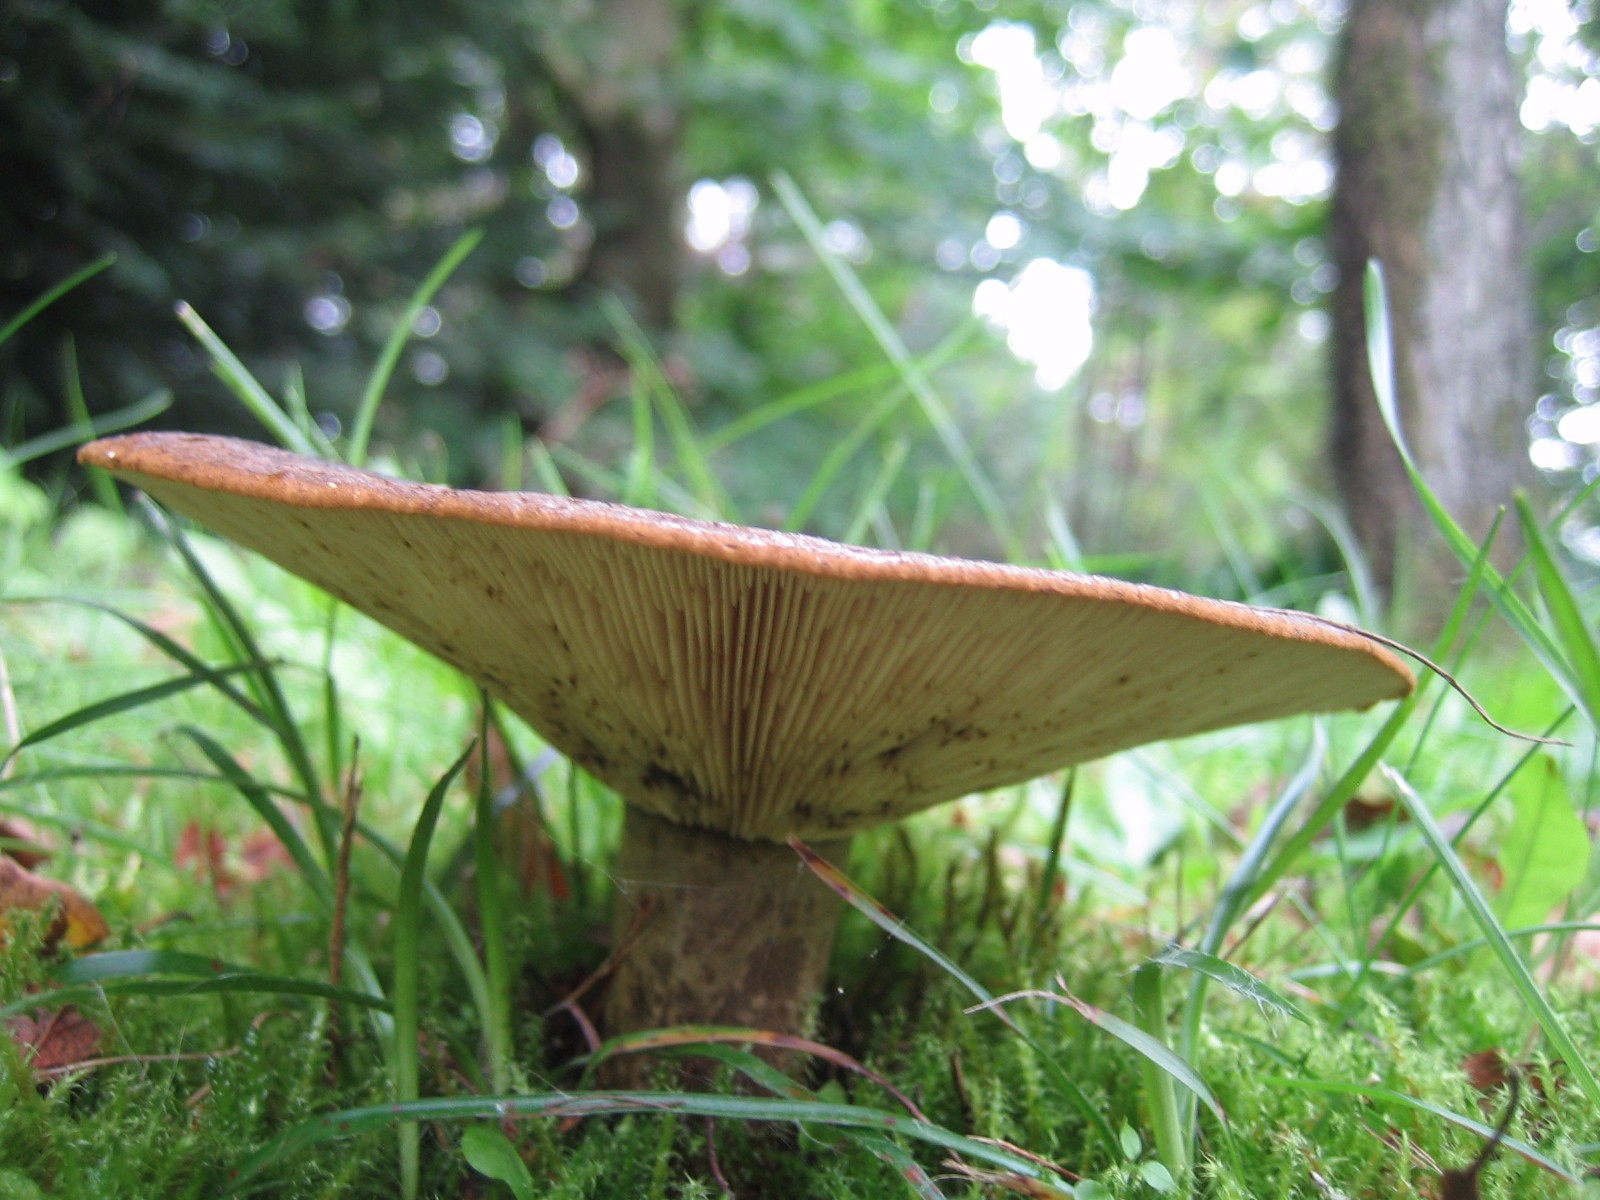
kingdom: Fungi
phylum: Basidiomycota
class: Agaricomycetes
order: Russulales
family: Russulaceae
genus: Lactarius
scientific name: Lactarius necator
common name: manddraber-mælkehat
